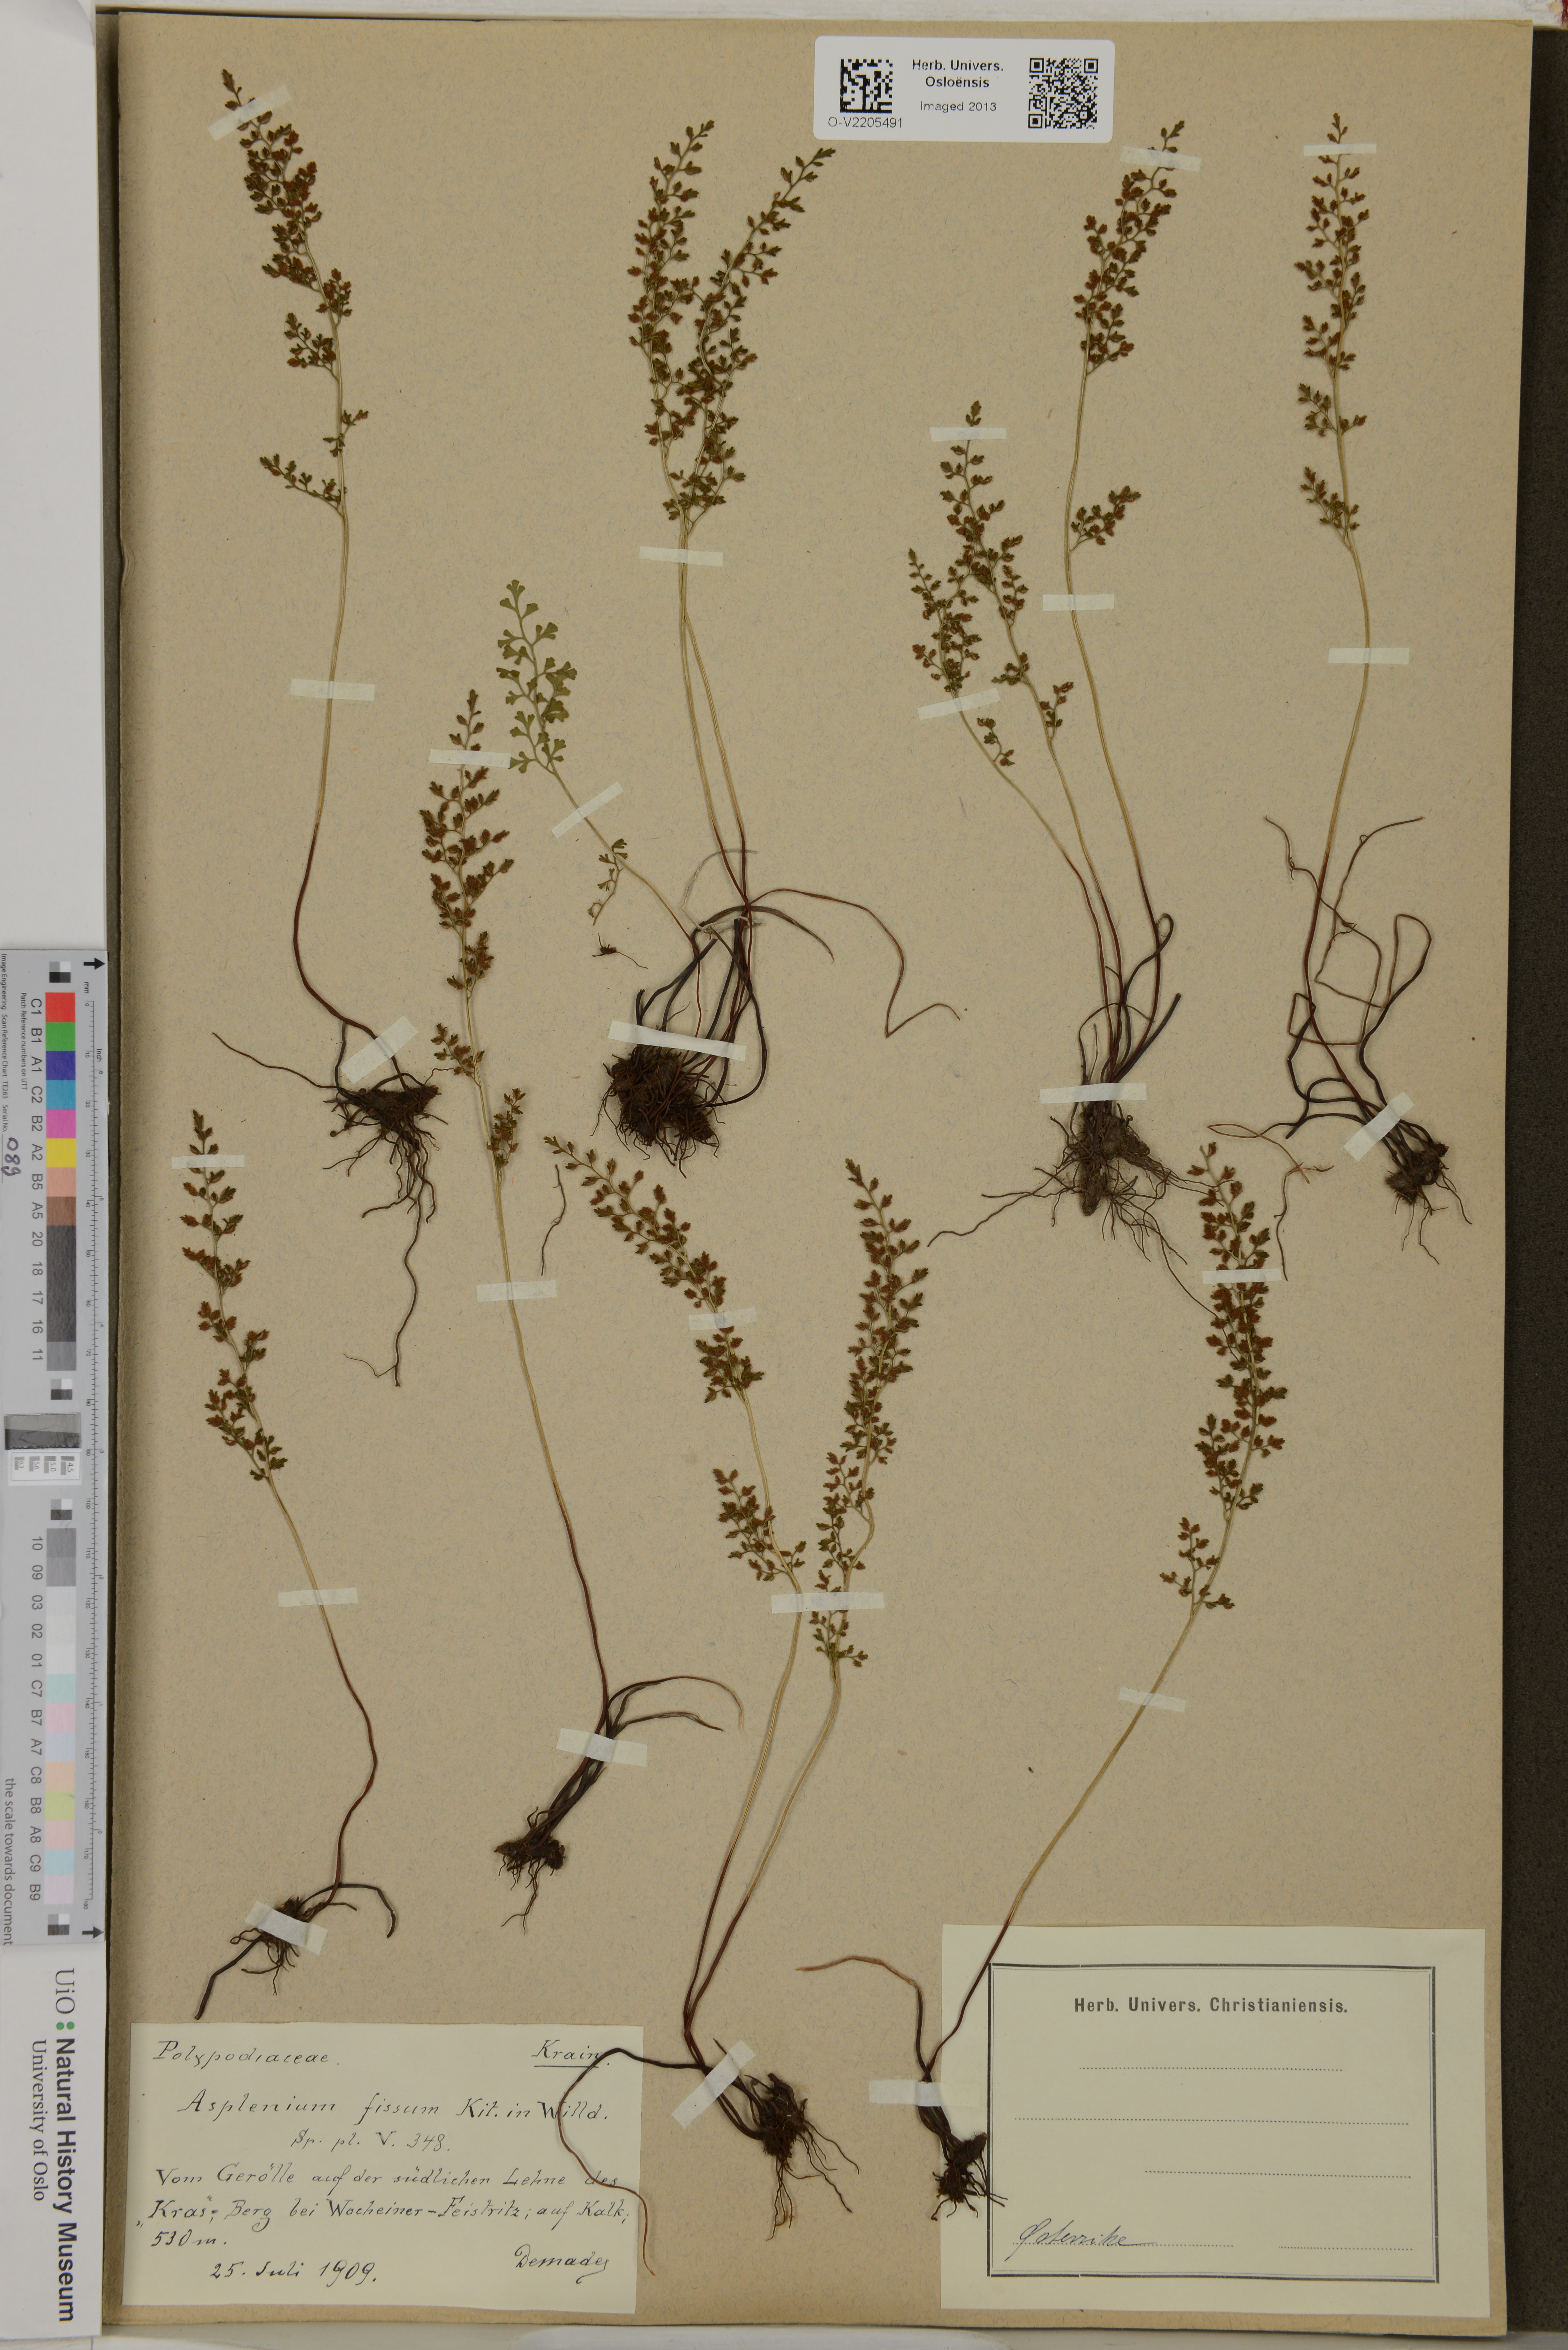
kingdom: Plantae
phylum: Tracheophyta
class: Polypodiopsida
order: Polypodiales
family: Aspleniaceae
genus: Asplenium
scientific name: Asplenium fissum
